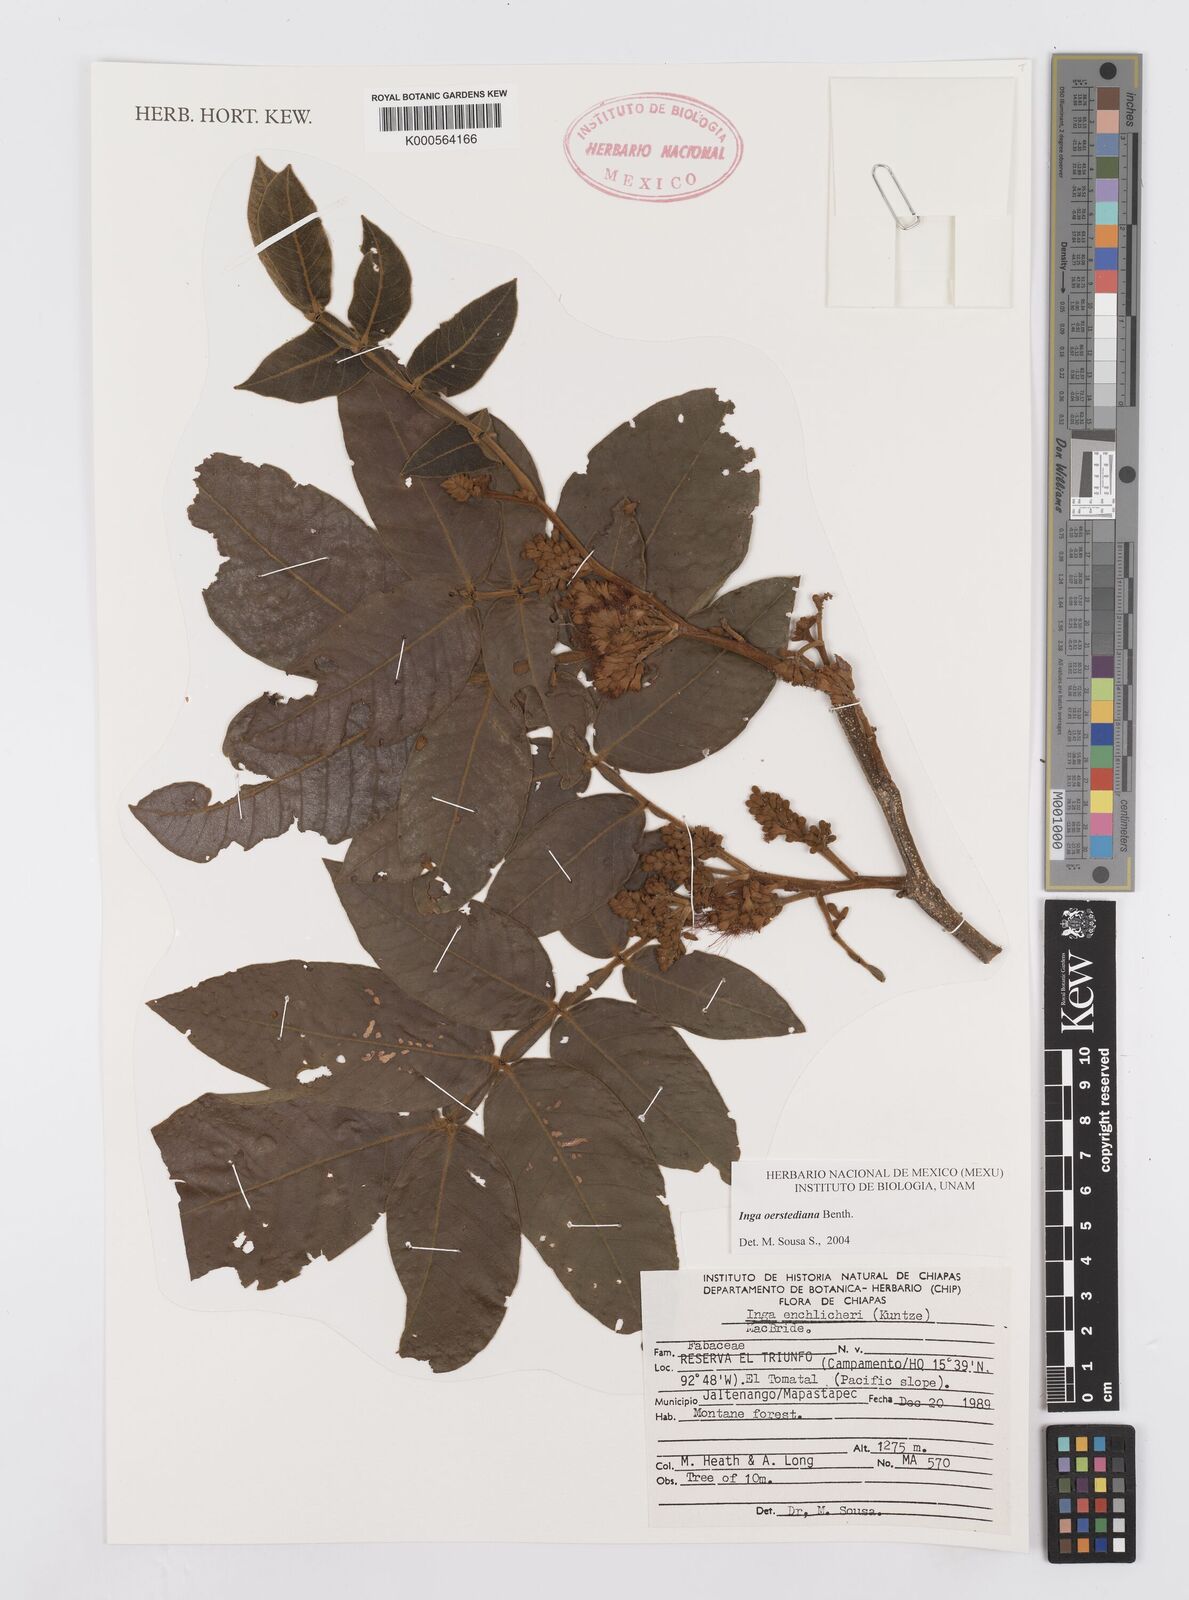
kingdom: Plantae
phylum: Tracheophyta
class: Magnoliopsida
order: Fabales
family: Fabaceae
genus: Inga
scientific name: Inga oerstediana
